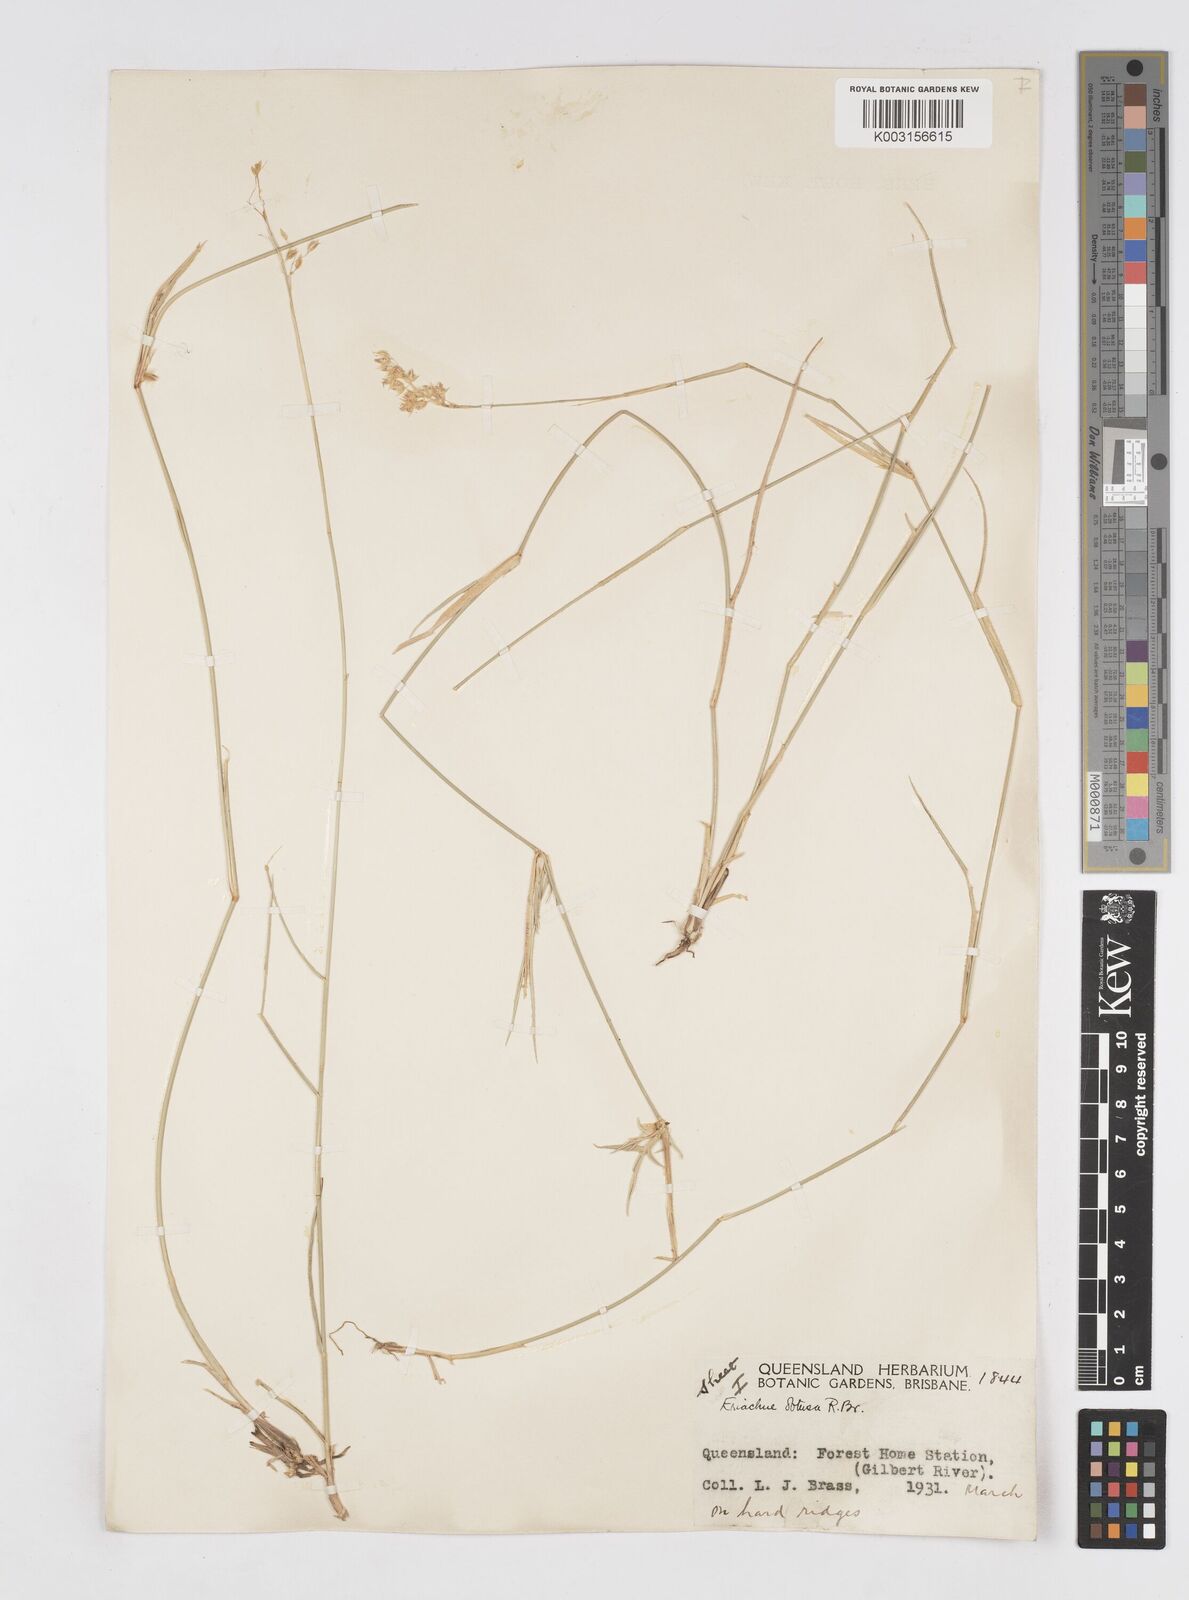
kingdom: Plantae
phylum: Tracheophyta
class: Liliopsida
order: Poales
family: Poaceae
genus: Eriachne
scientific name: Eriachne obtusa
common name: Northern wanderrie grass
